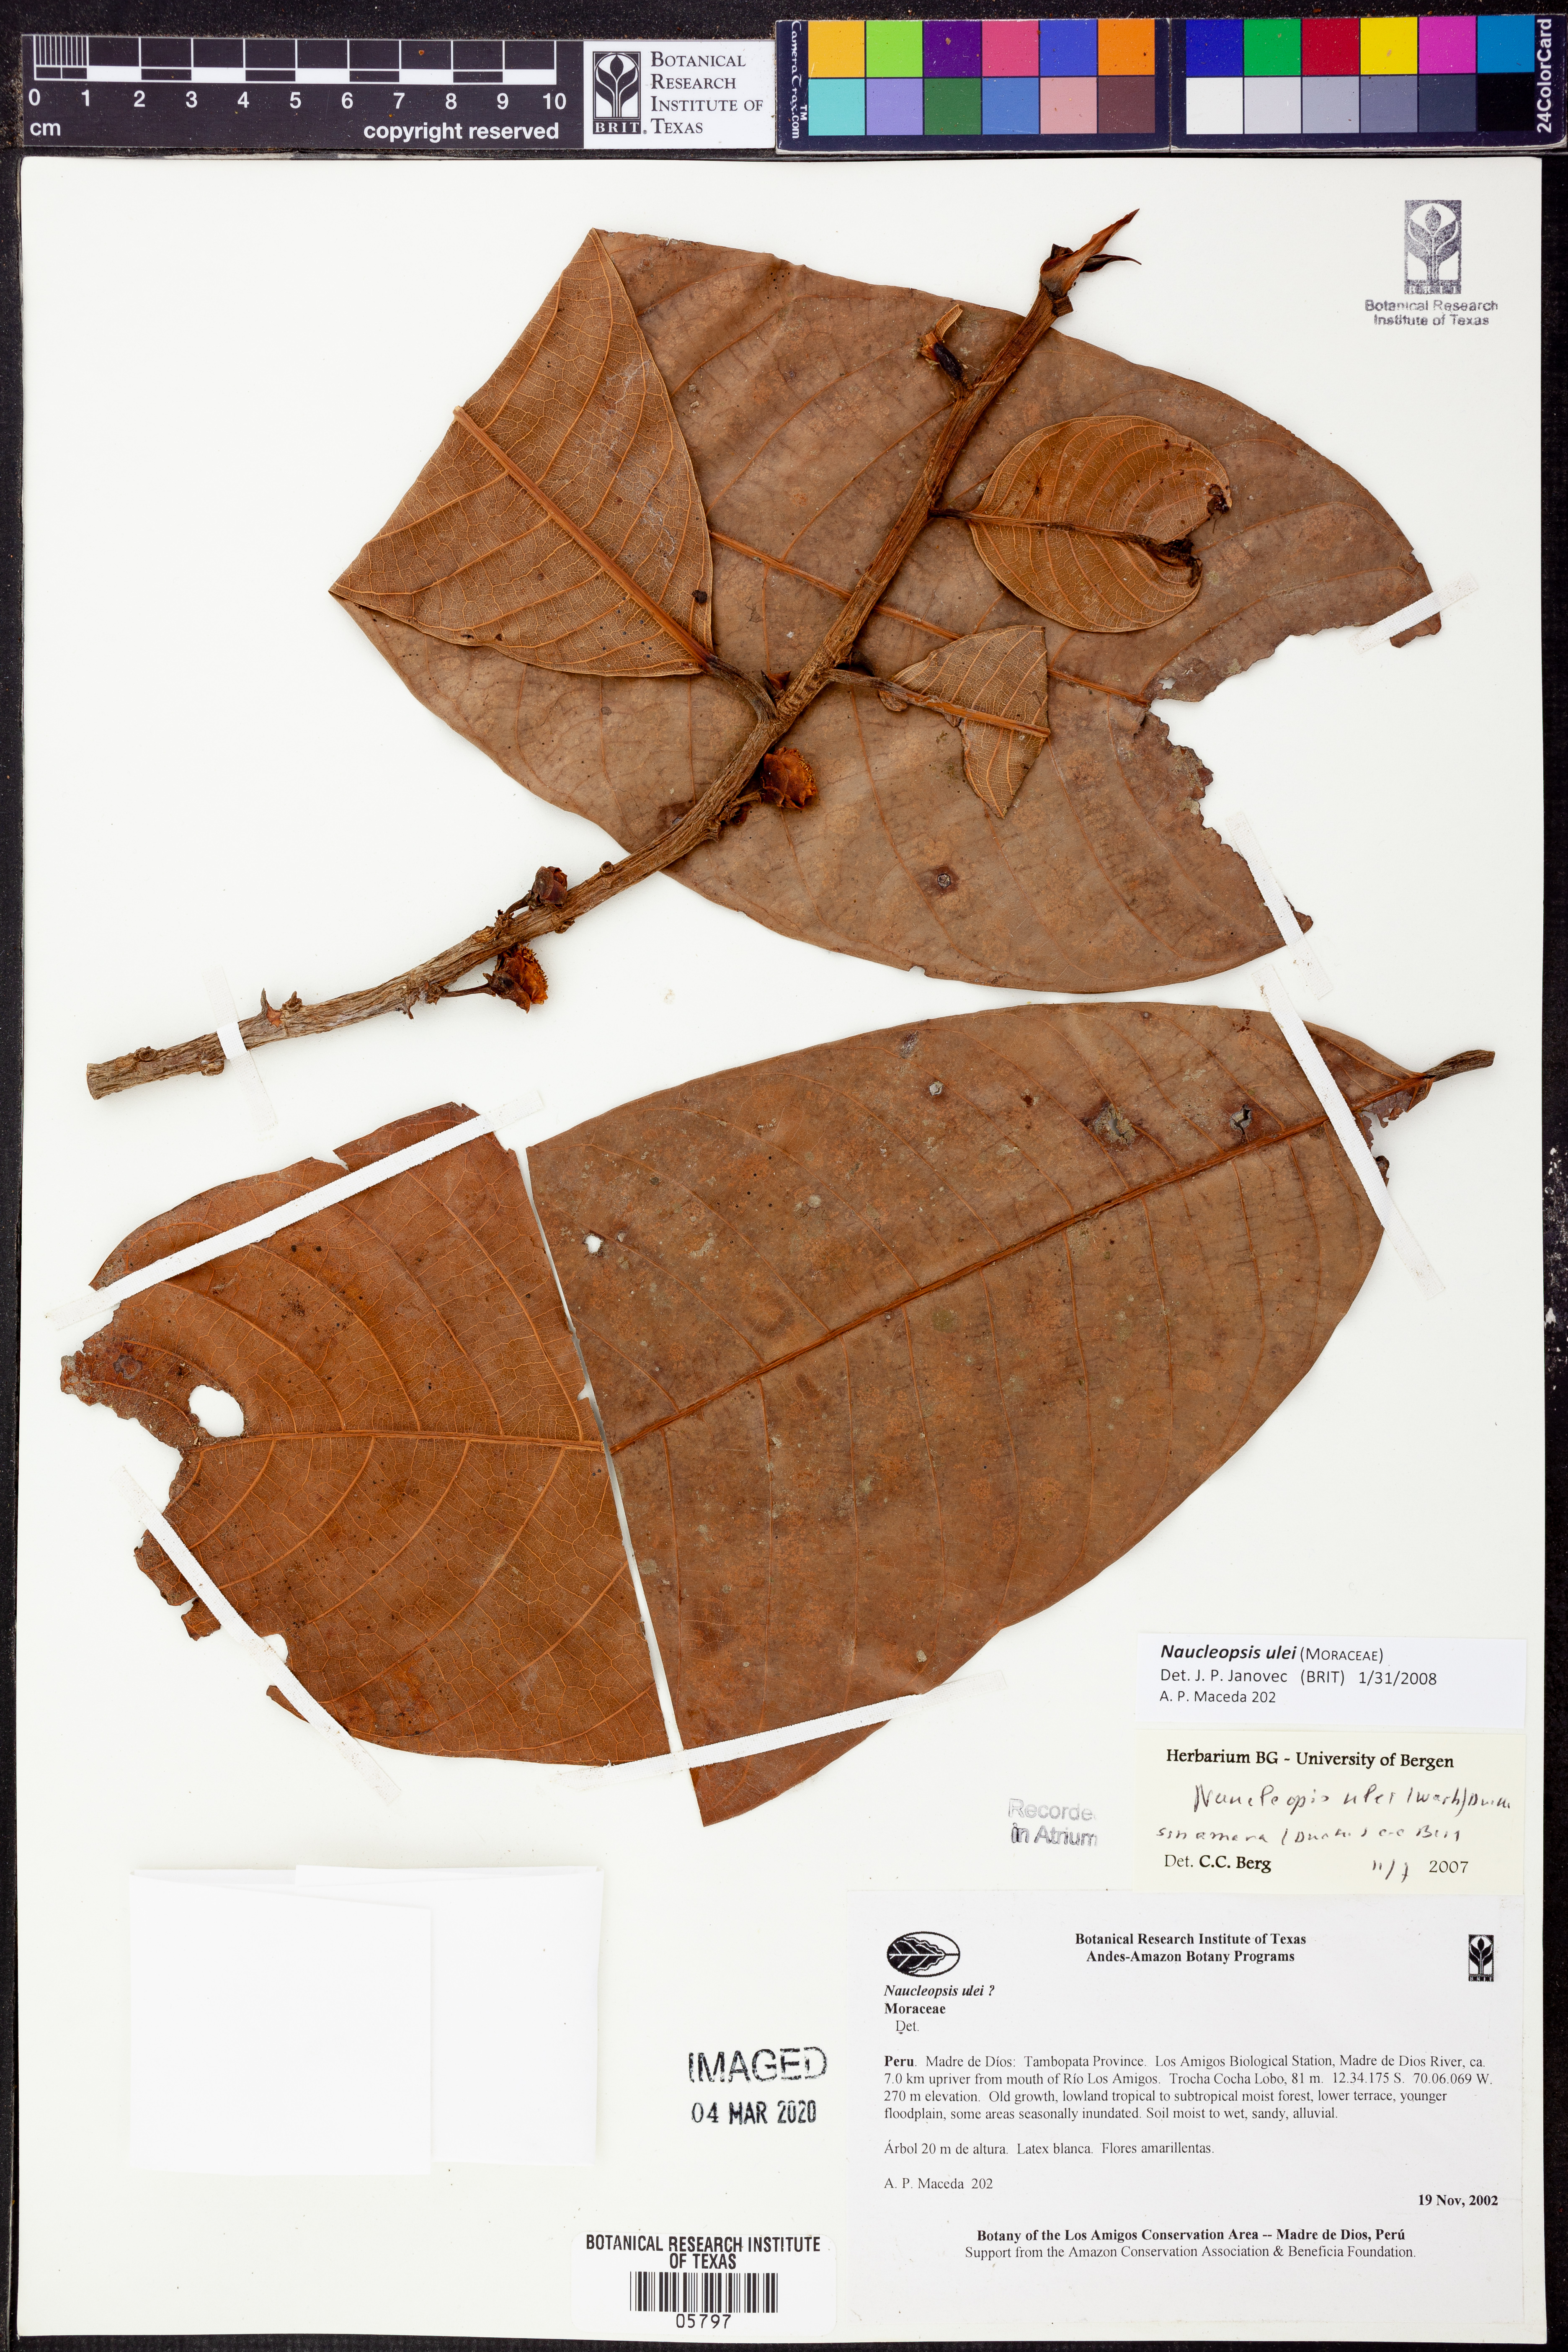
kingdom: Plantae
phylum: Tracheophyta
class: Magnoliopsida
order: Rosales
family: Moraceae
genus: Naucleopsis
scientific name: Naucleopsis
